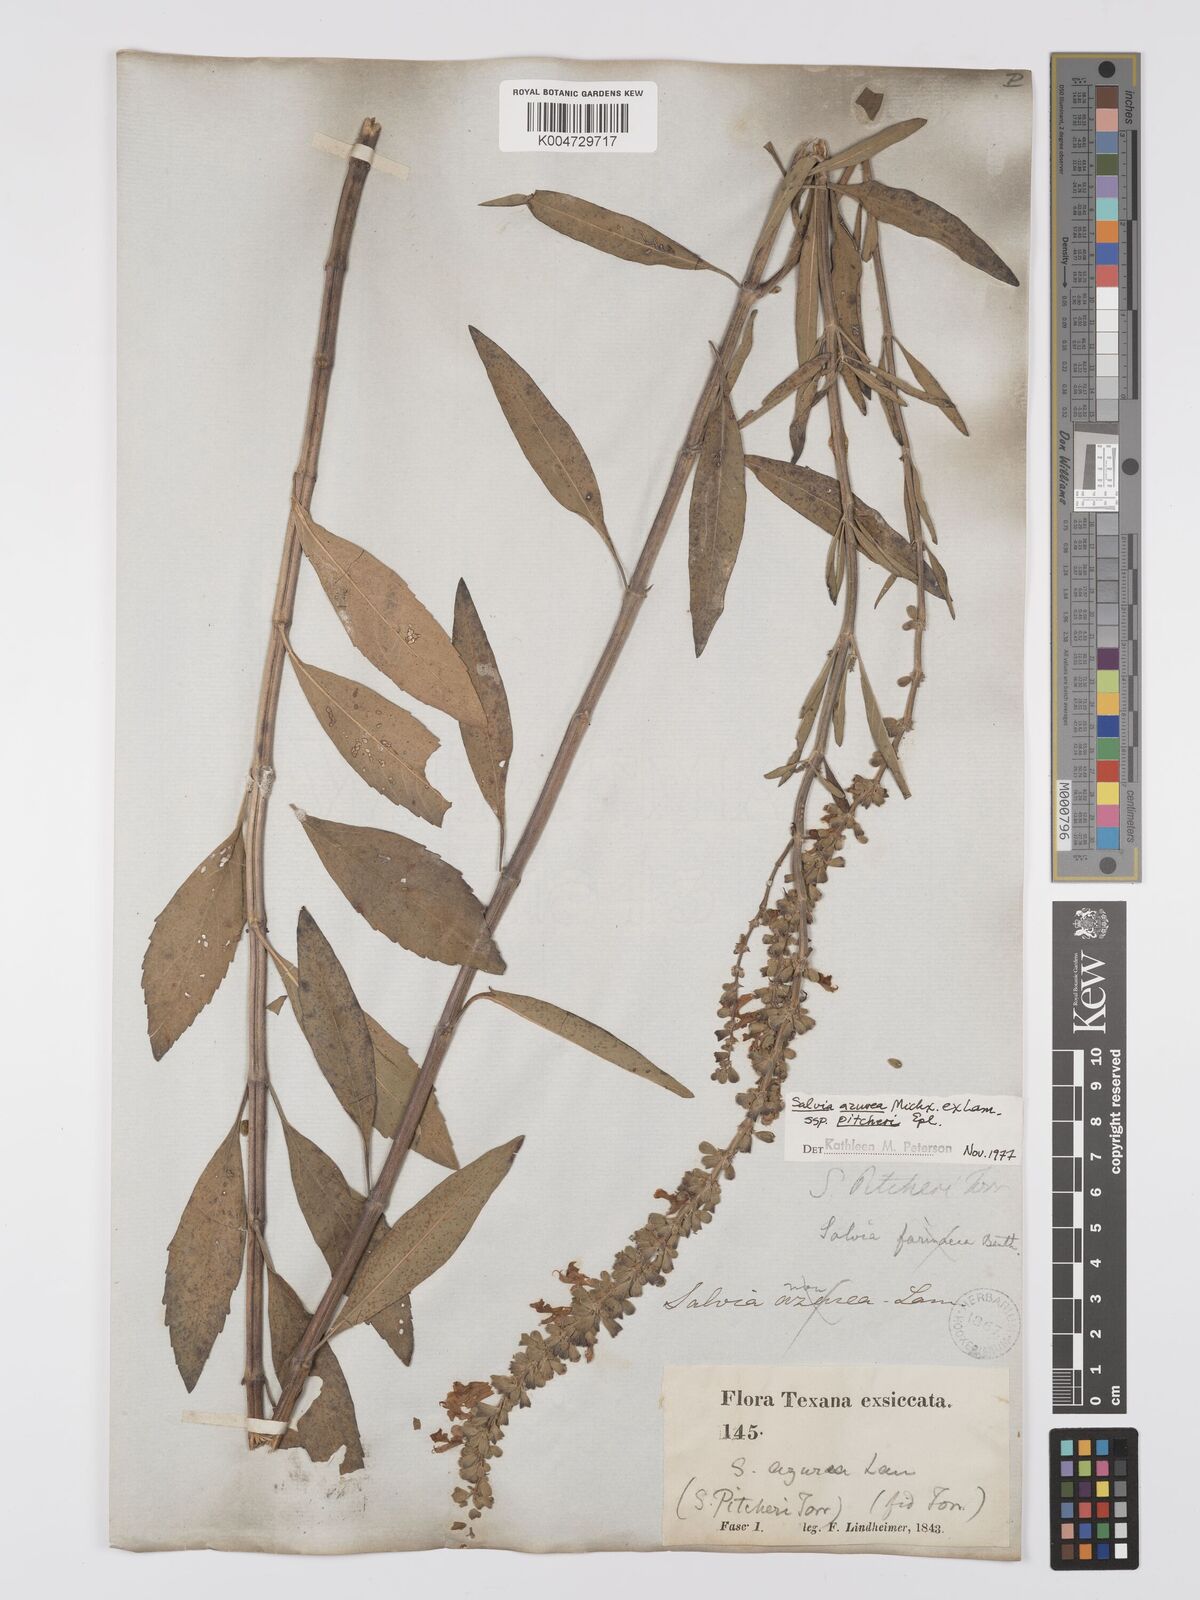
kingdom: Plantae
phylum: Tracheophyta
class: Magnoliopsida
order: Lamiales
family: Lamiaceae
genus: Salvia
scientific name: Salvia azurea
